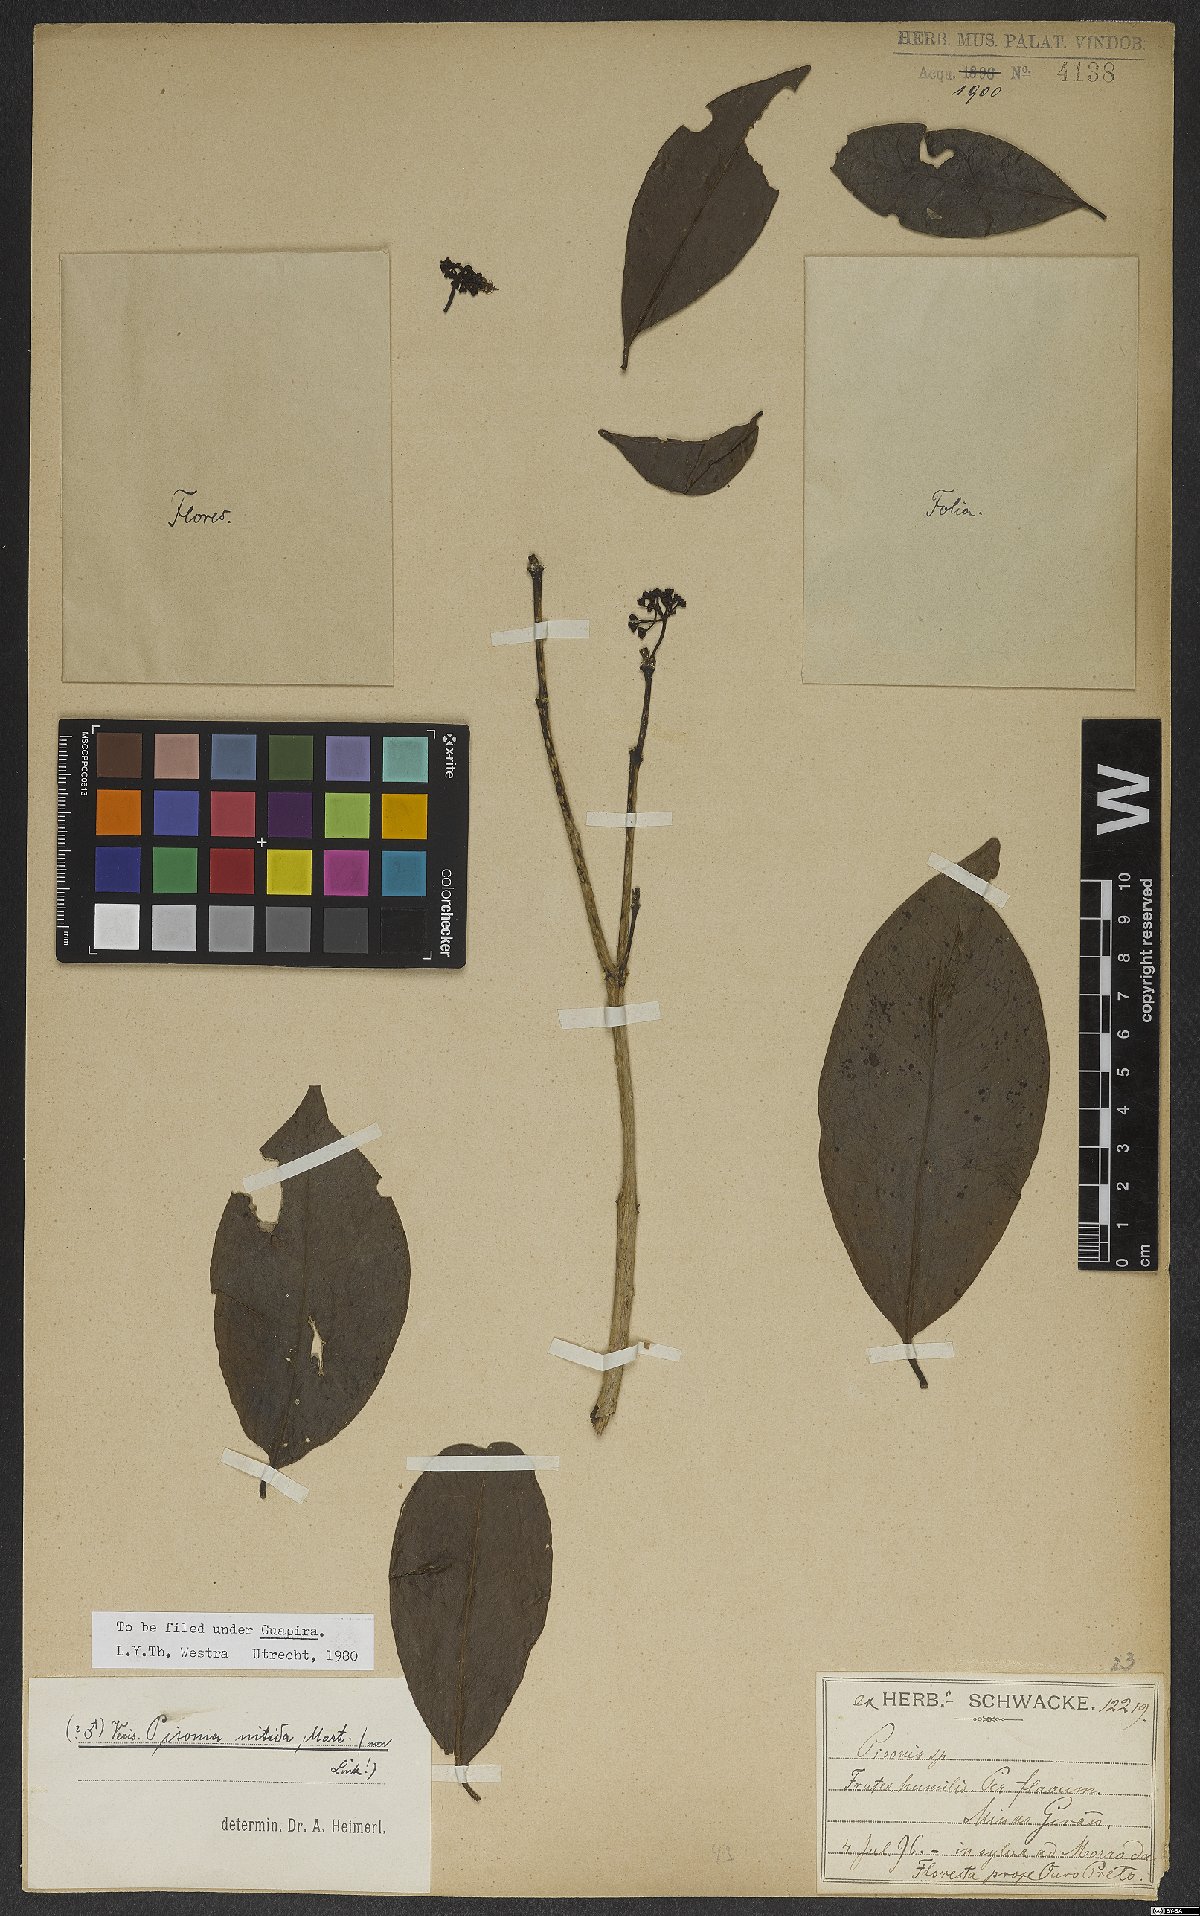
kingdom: Plantae
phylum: Tracheophyta
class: Magnoliopsida
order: Caryophyllales
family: Nyctaginaceae
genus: Guapira
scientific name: Guapira nitida
